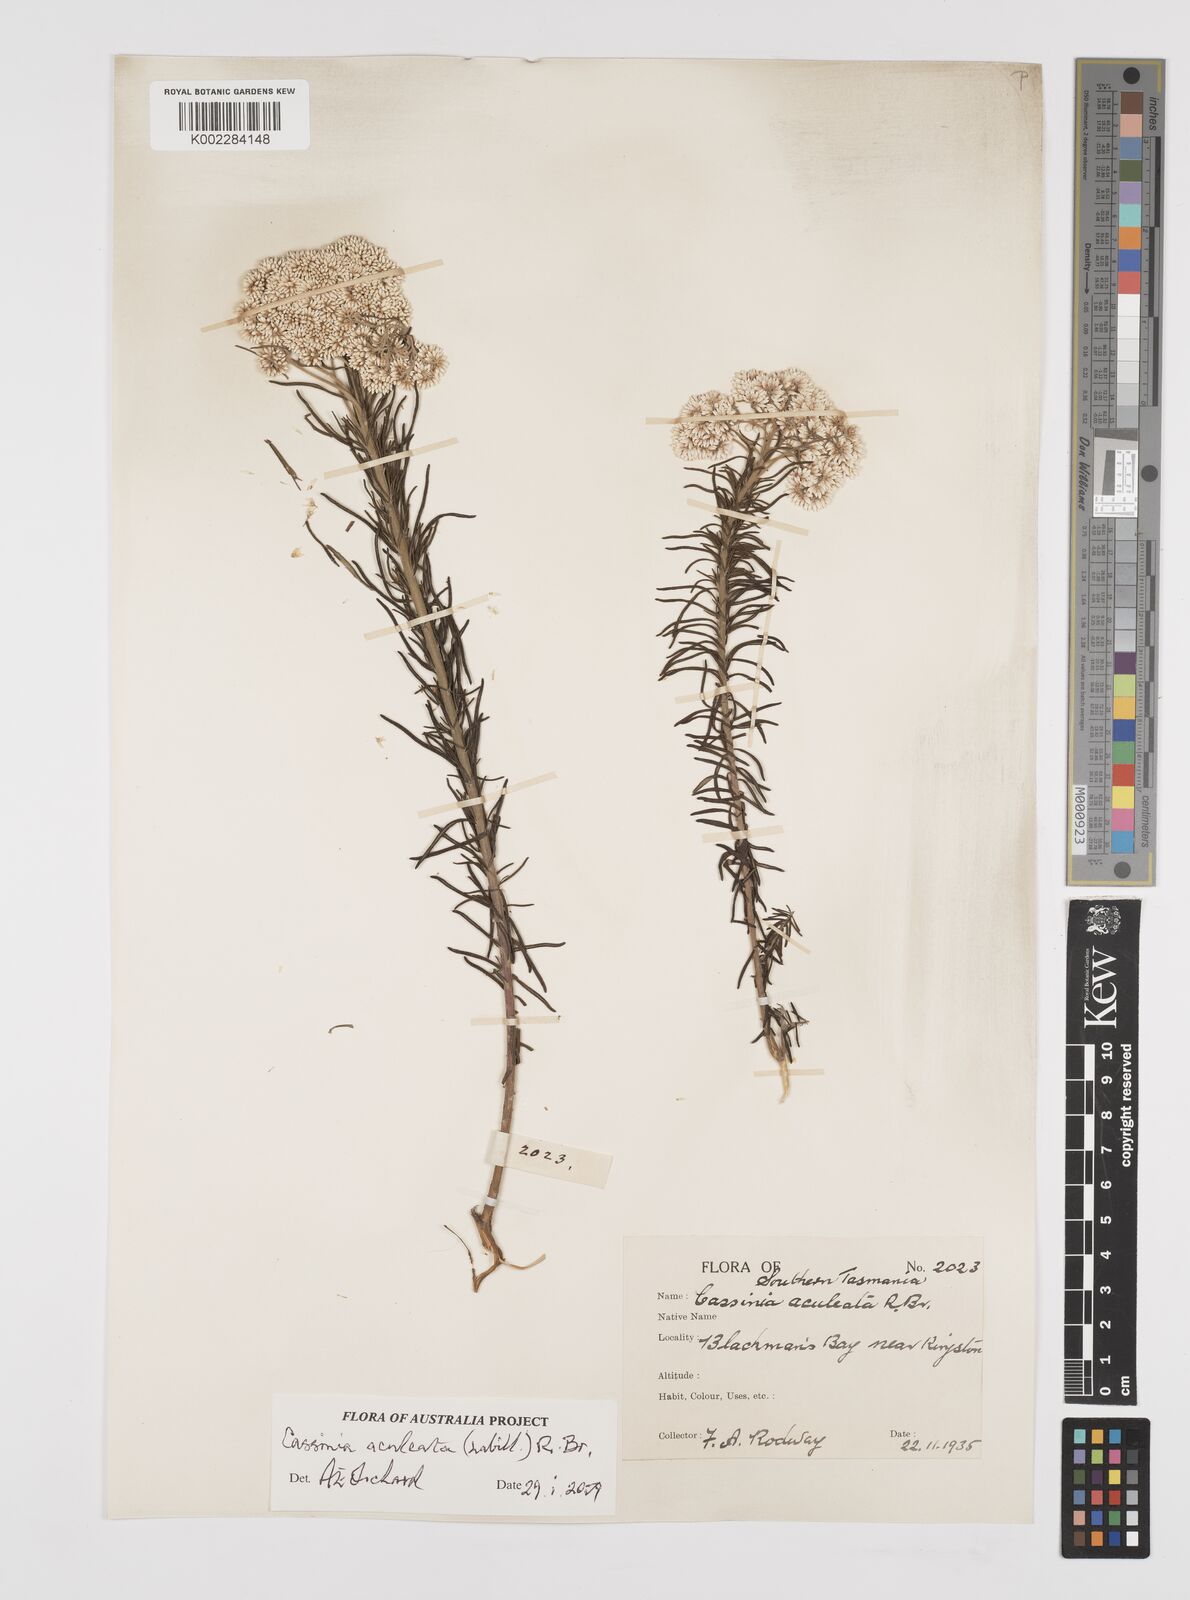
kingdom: Plantae
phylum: Tracheophyta
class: Magnoliopsida
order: Asterales
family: Asteraceae
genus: Cassinia
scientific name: Cassinia aculeata
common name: Australian tauhinu
